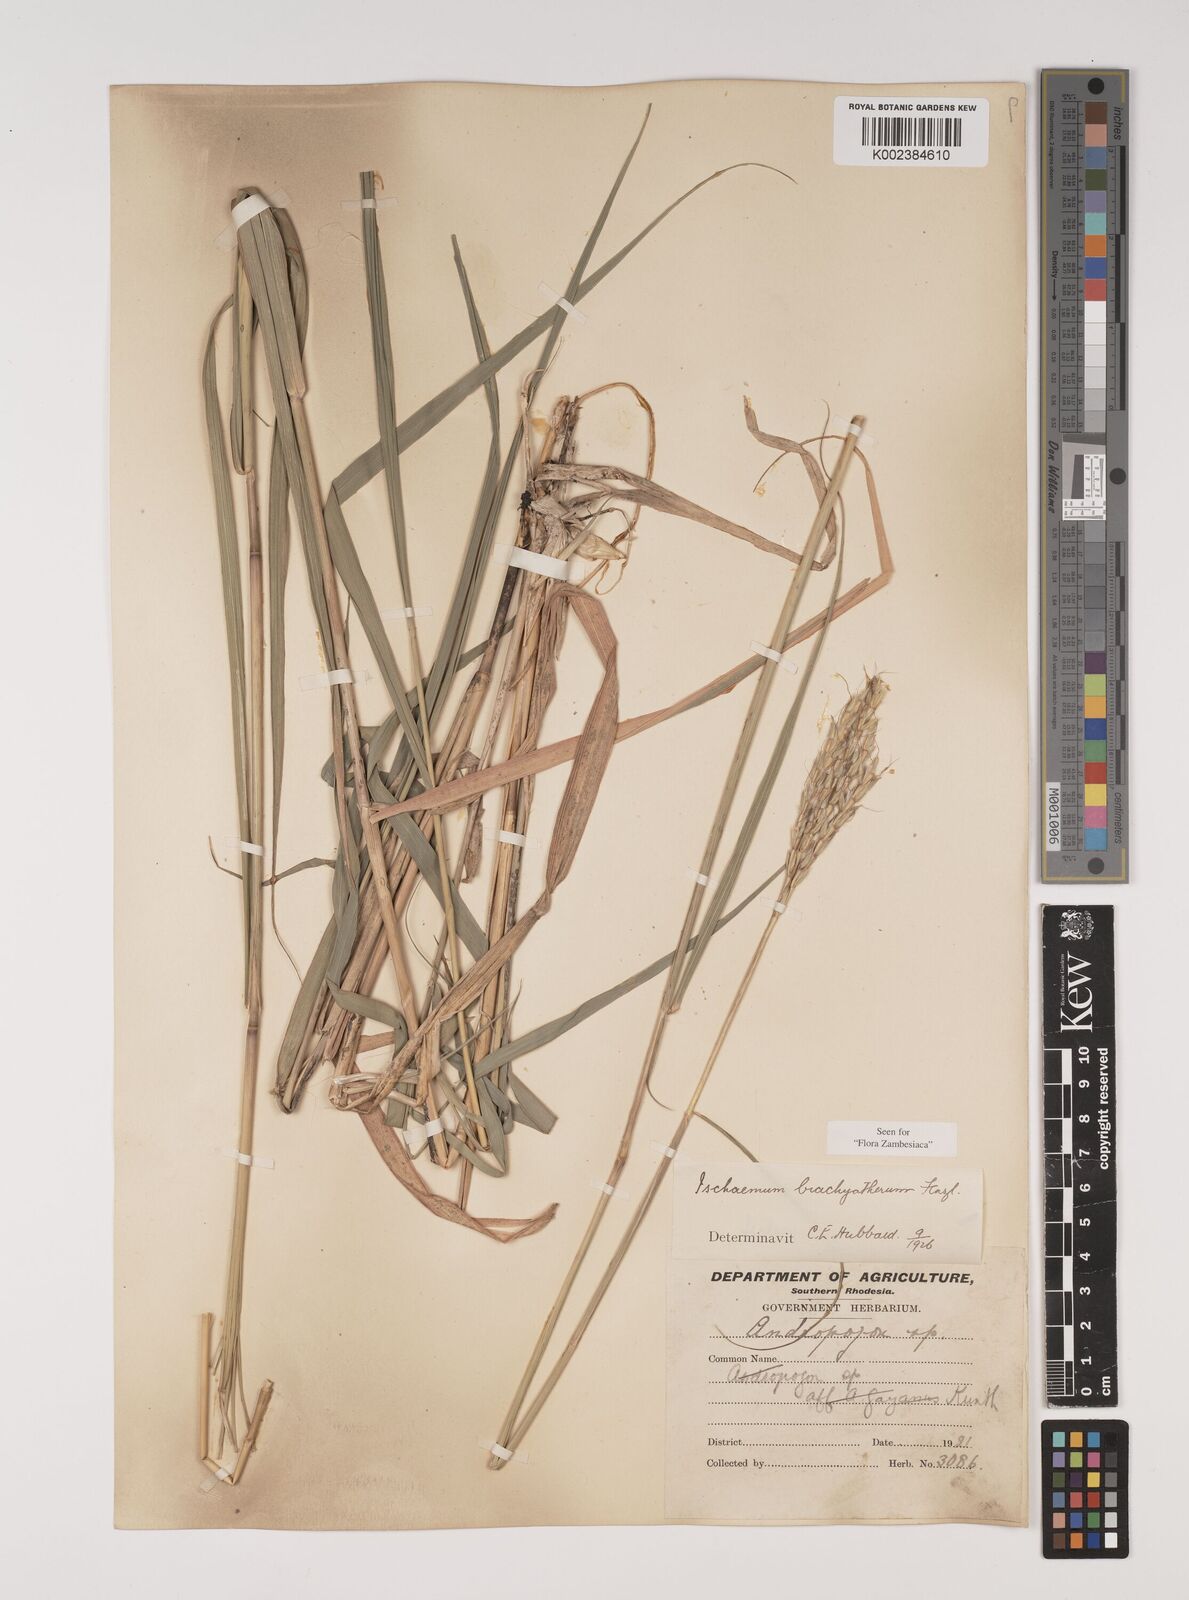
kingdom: Plantae
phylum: Tracheophyta
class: Liliopsida
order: Poales
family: Poaceae
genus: Ischaemum
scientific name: Ischaemum afrum
